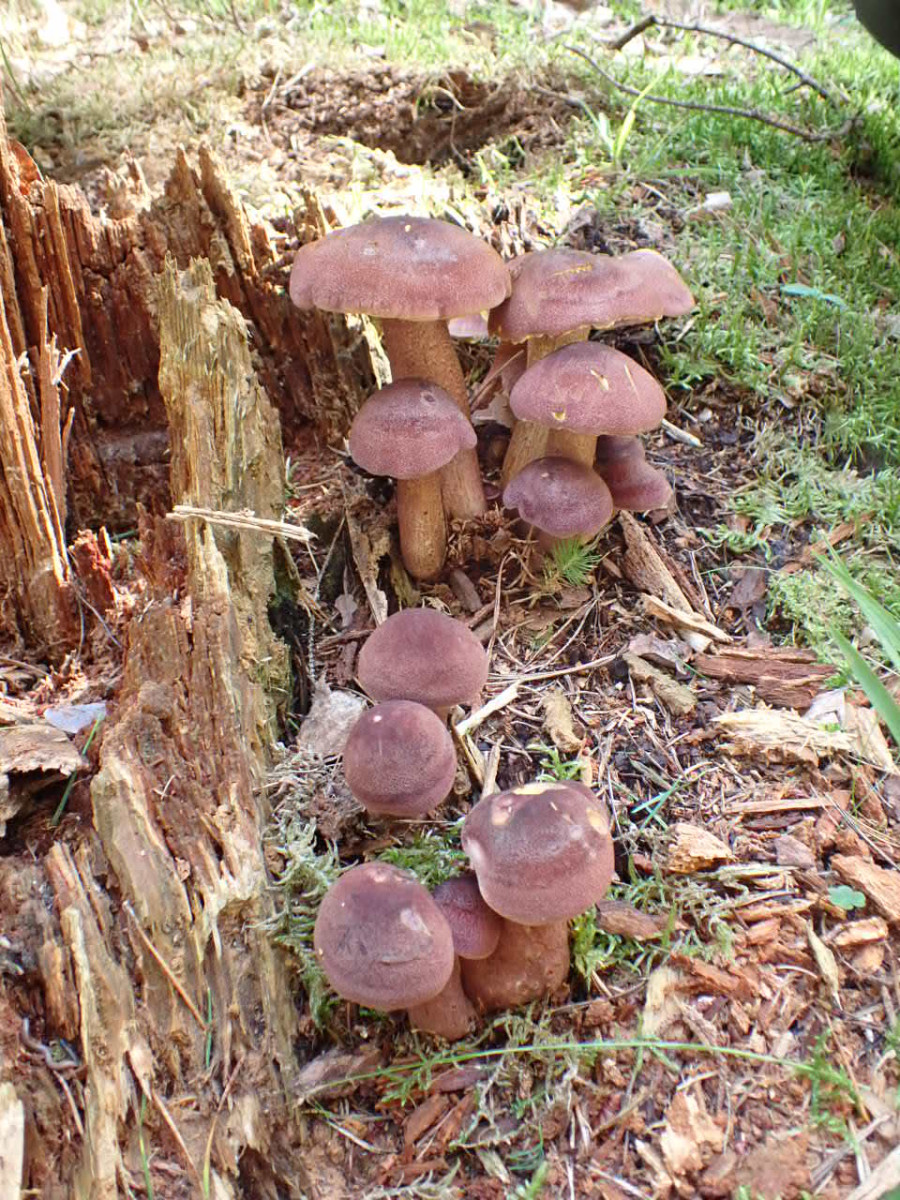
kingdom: Fungi
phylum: Basidiomycota
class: Agaricomycetes
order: Agaricales
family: Tricholomataceae
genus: Tricholomopsis
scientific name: Tricholomopsis rutilans
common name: purpur-væbnerhat
